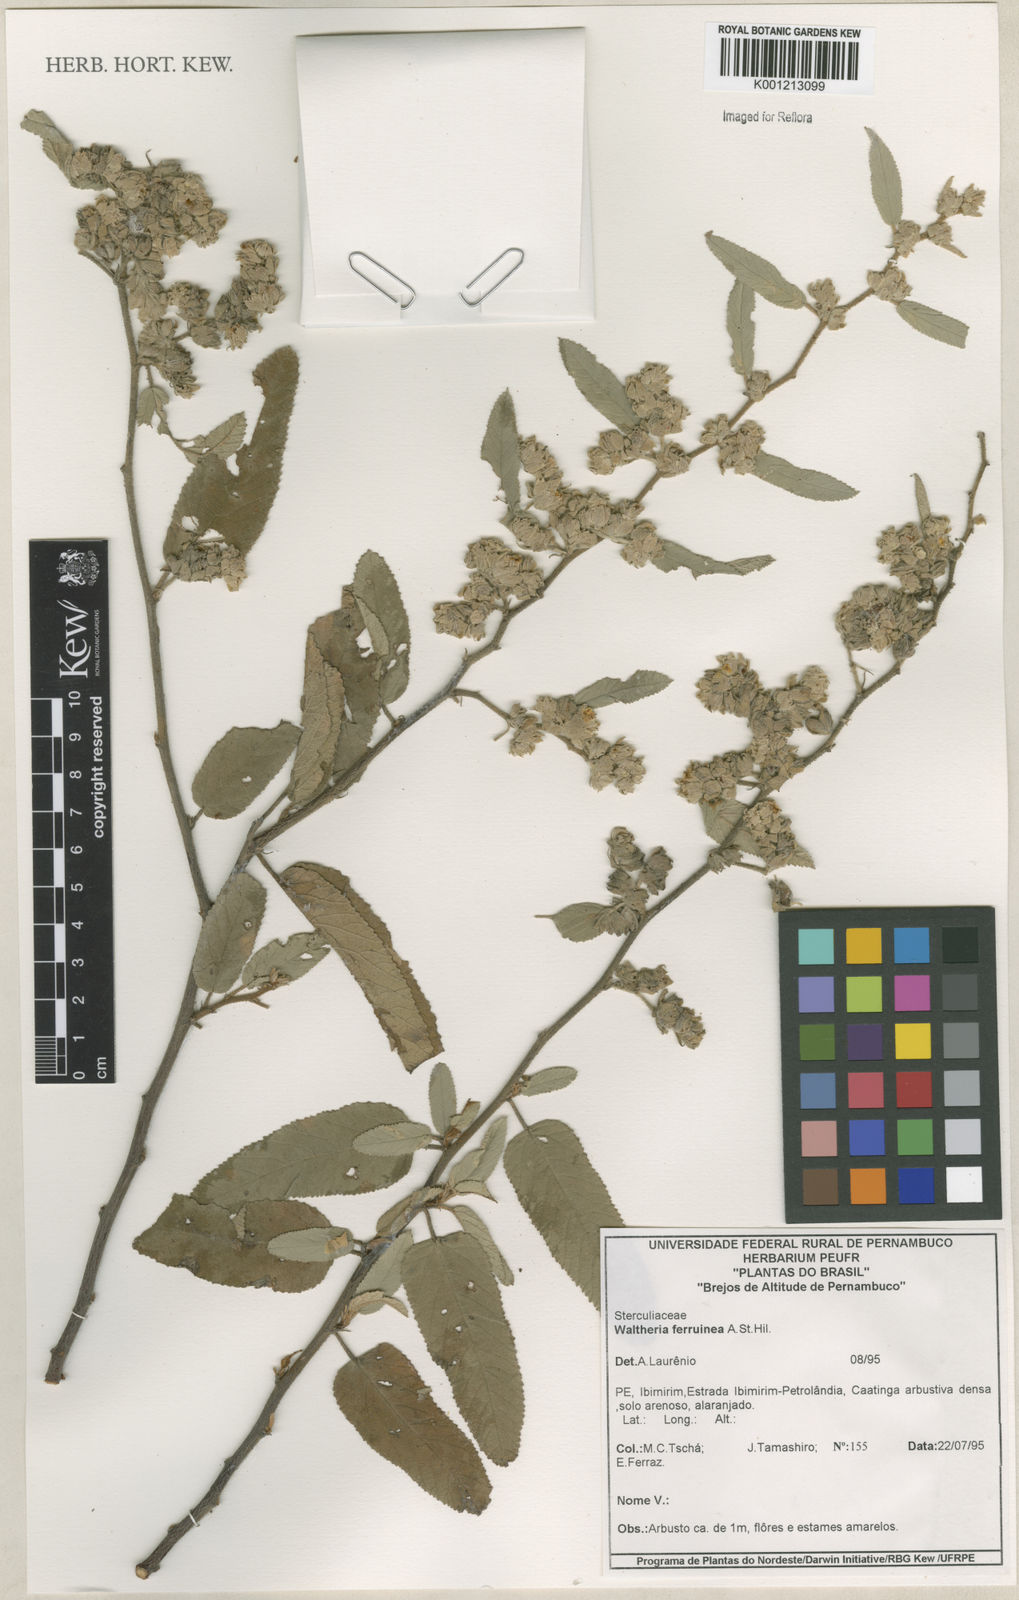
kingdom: Plantae
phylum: Tracheophyta
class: Magnoliopsida
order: Malvales
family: Malvaceae
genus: Waltheria
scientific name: Waltheria ferruginea
